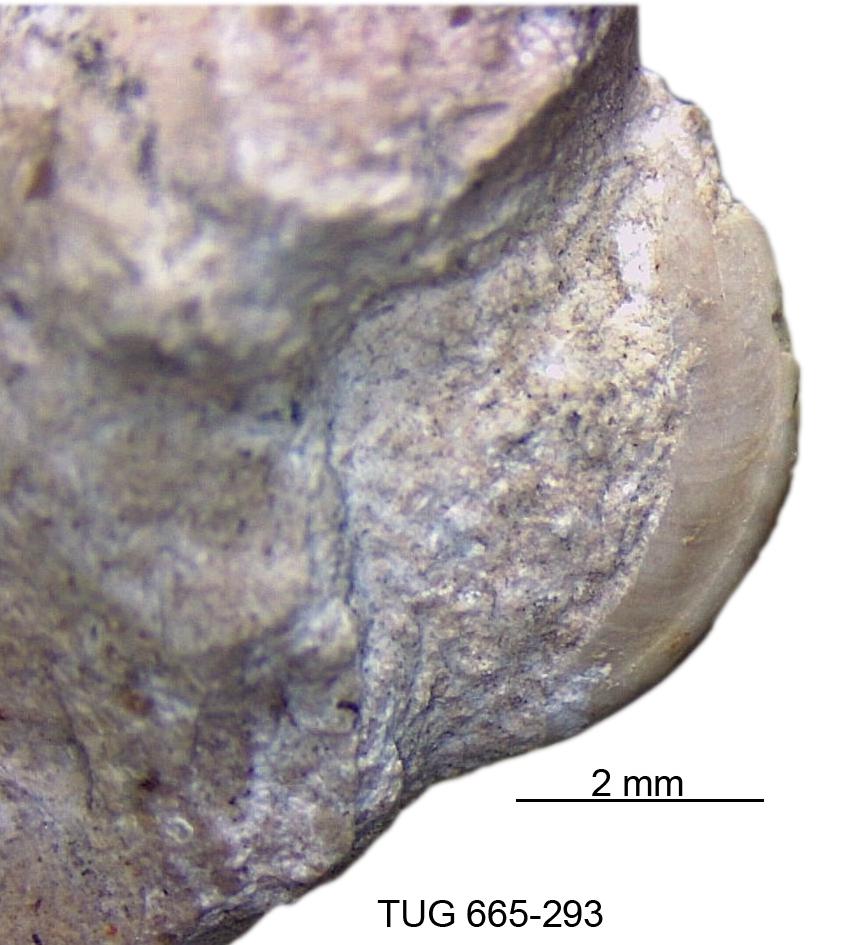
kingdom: Animalia
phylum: Mollusca
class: Gastropoda
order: Pleurotomariida
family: Gosseletinidae
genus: Cataschisma
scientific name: Cataschisma Globispira nitida
